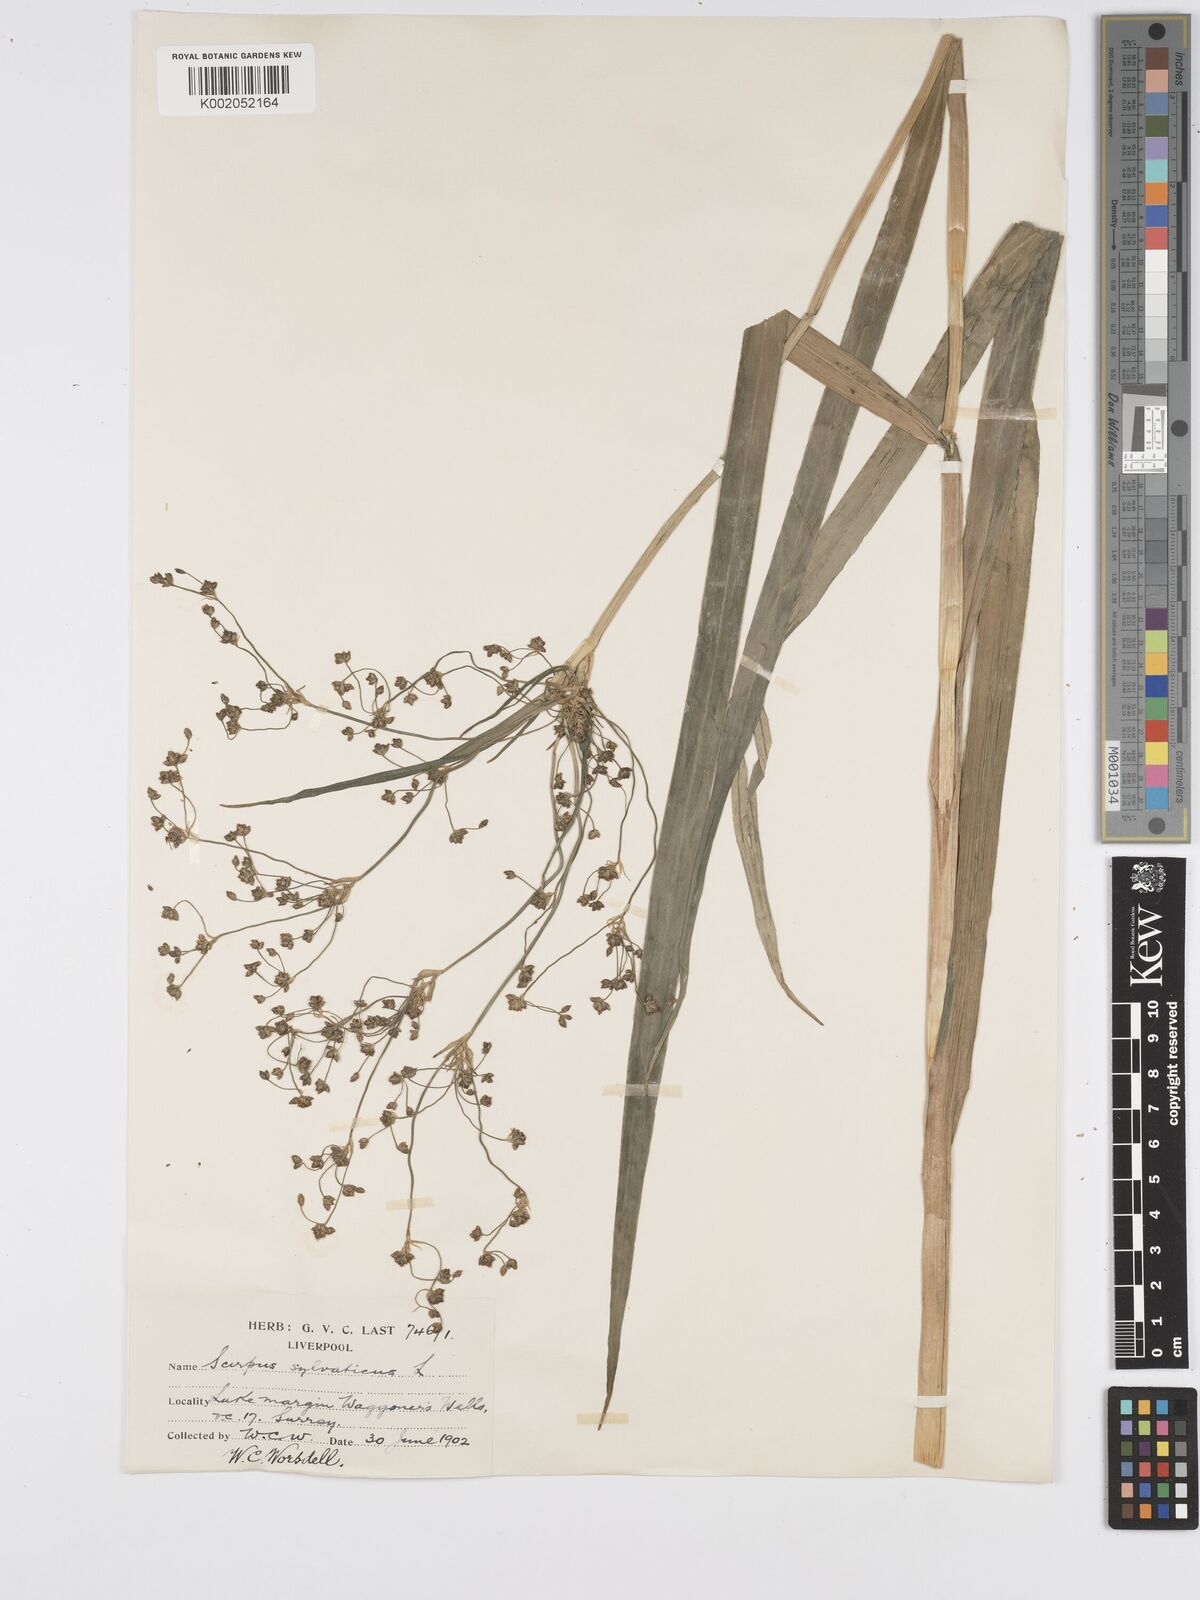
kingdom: Plantae
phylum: Tracheophyta
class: Liliopsida
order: Poales
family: Cyperaceae
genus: Scirpus
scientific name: Scirpus sylvaticus
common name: Wood club-rush
